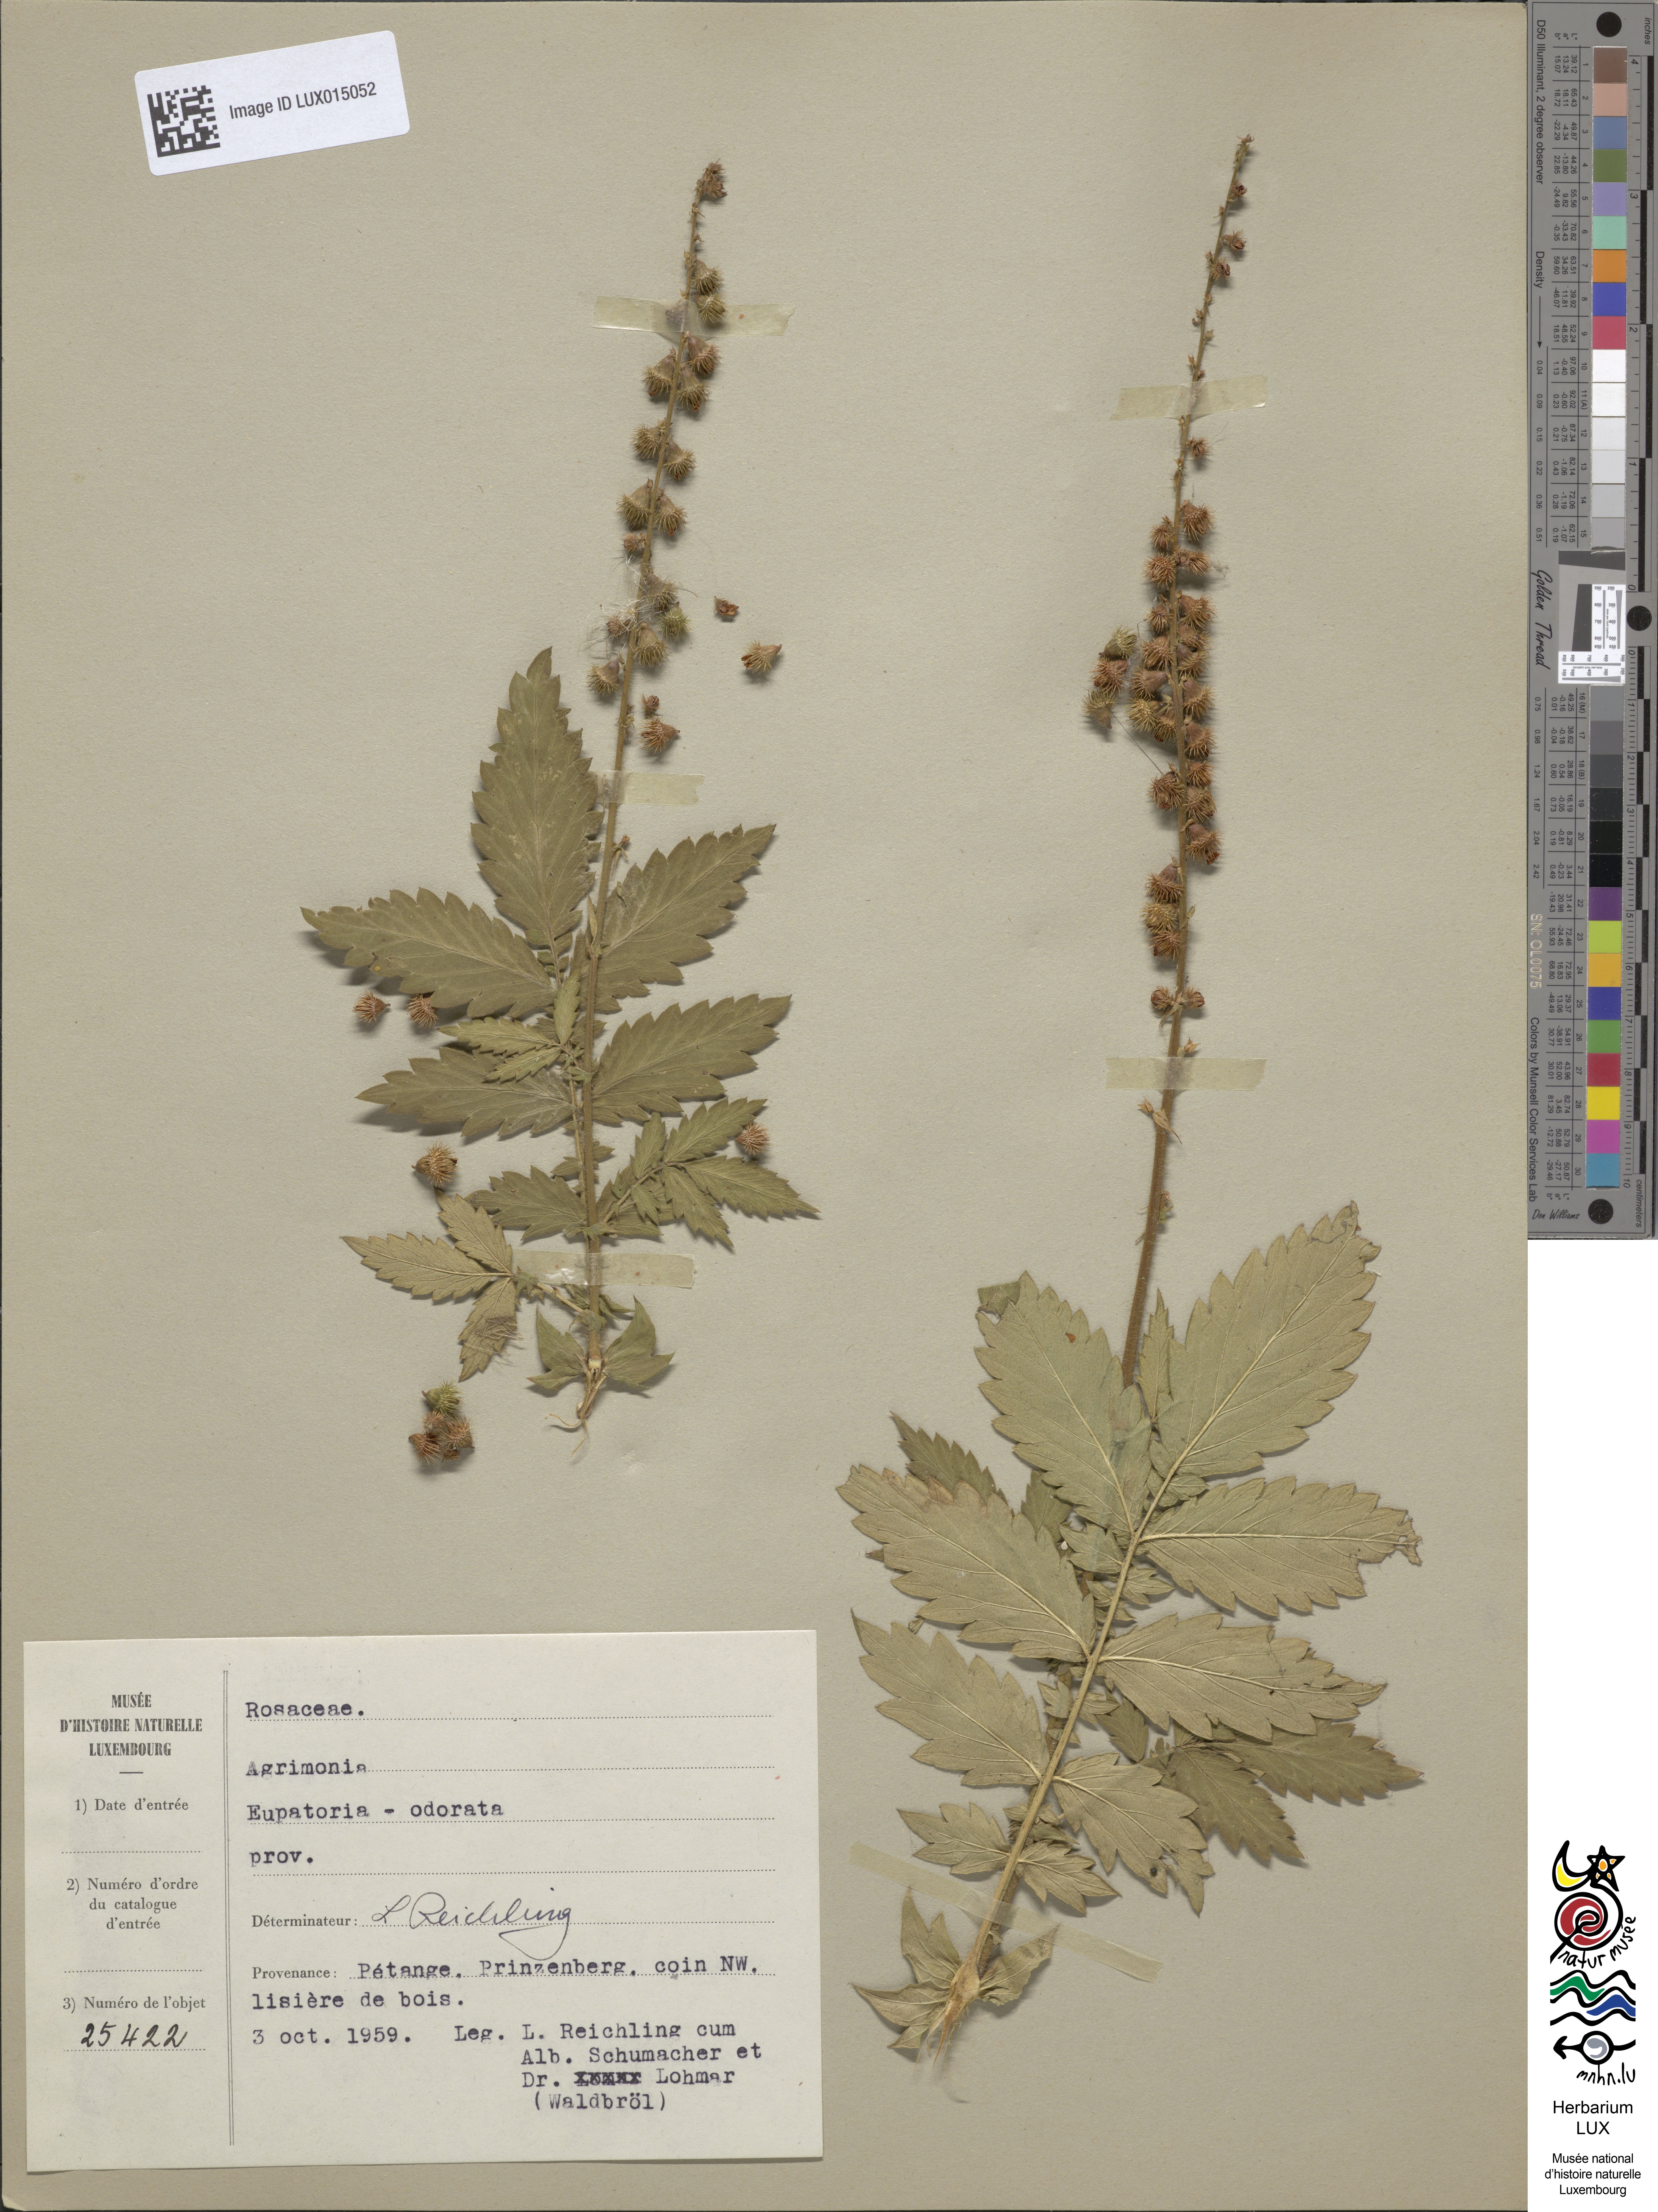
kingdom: Plantae
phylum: Tracheophyta
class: Magnoliopsida
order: Rosales
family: Rosaceae
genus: Agrimonia
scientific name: Agrimonia
